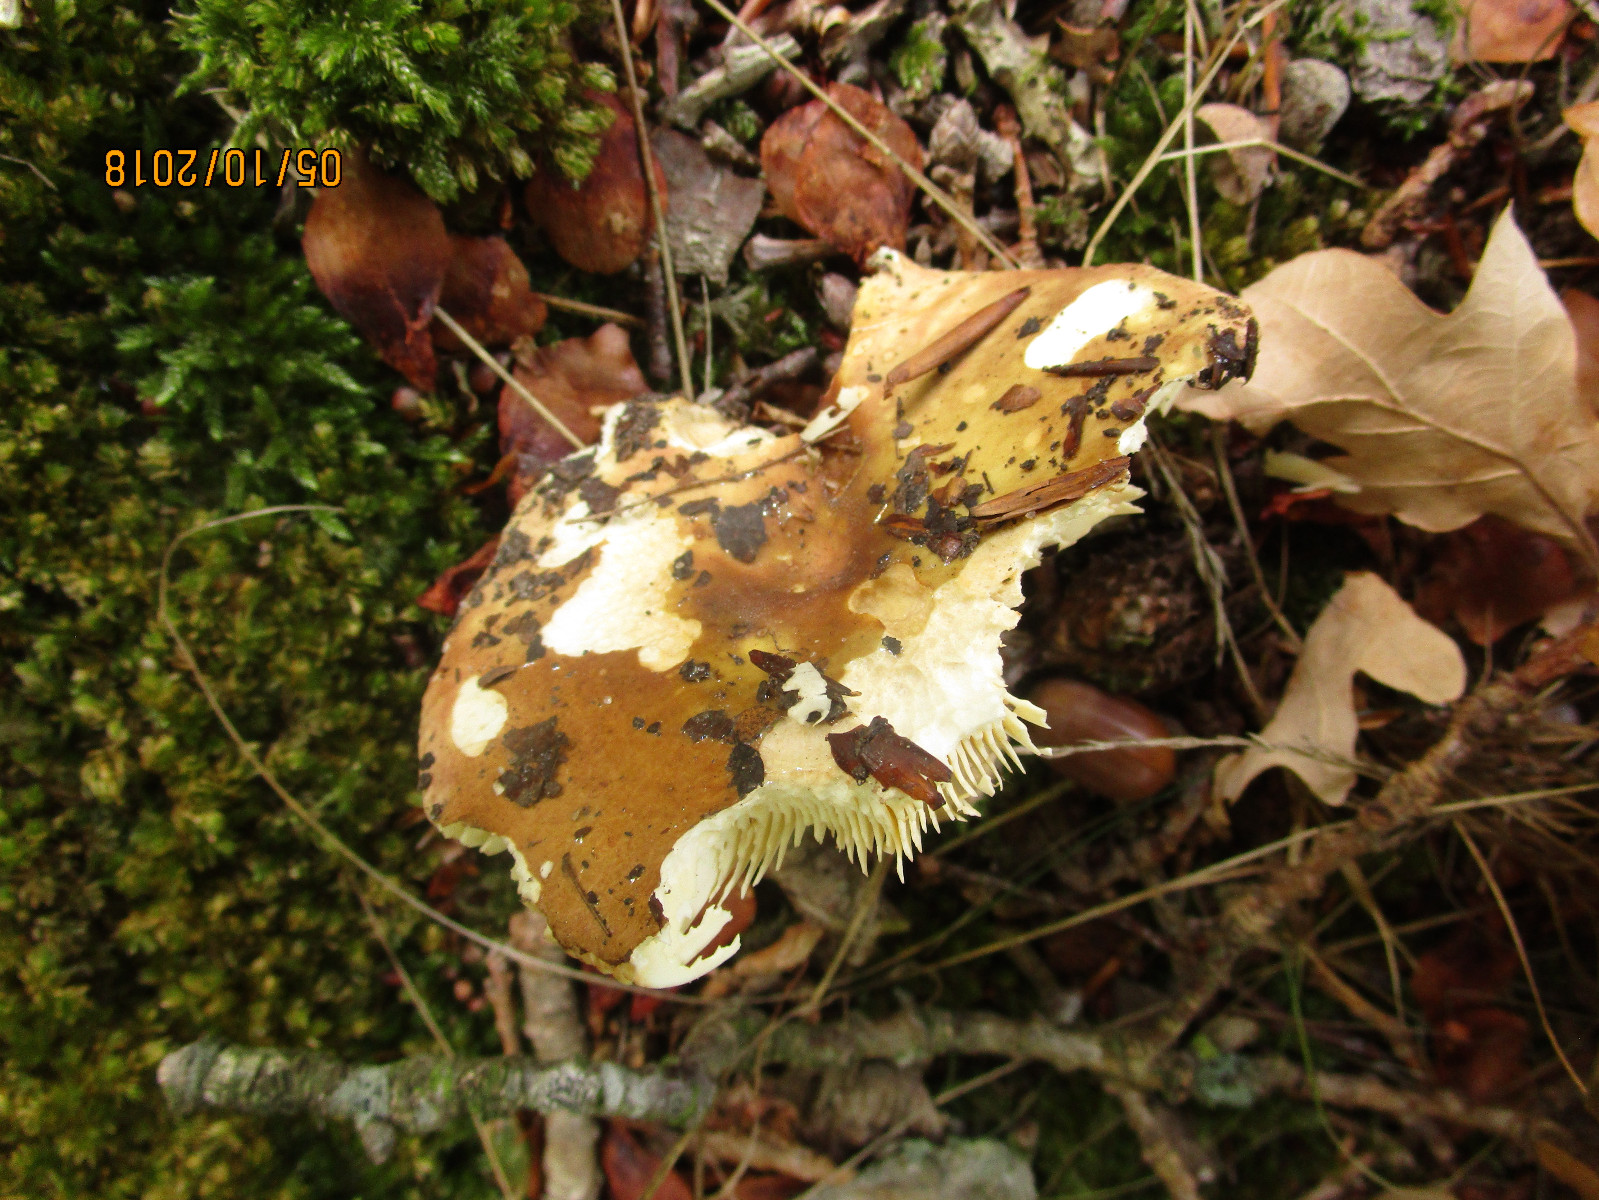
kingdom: Fungi
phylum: Basidiomycota
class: Agaricomycetes
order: Russulales
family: Russulaceae
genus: Russula
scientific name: Russula graveolens
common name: bugtet skørhat
